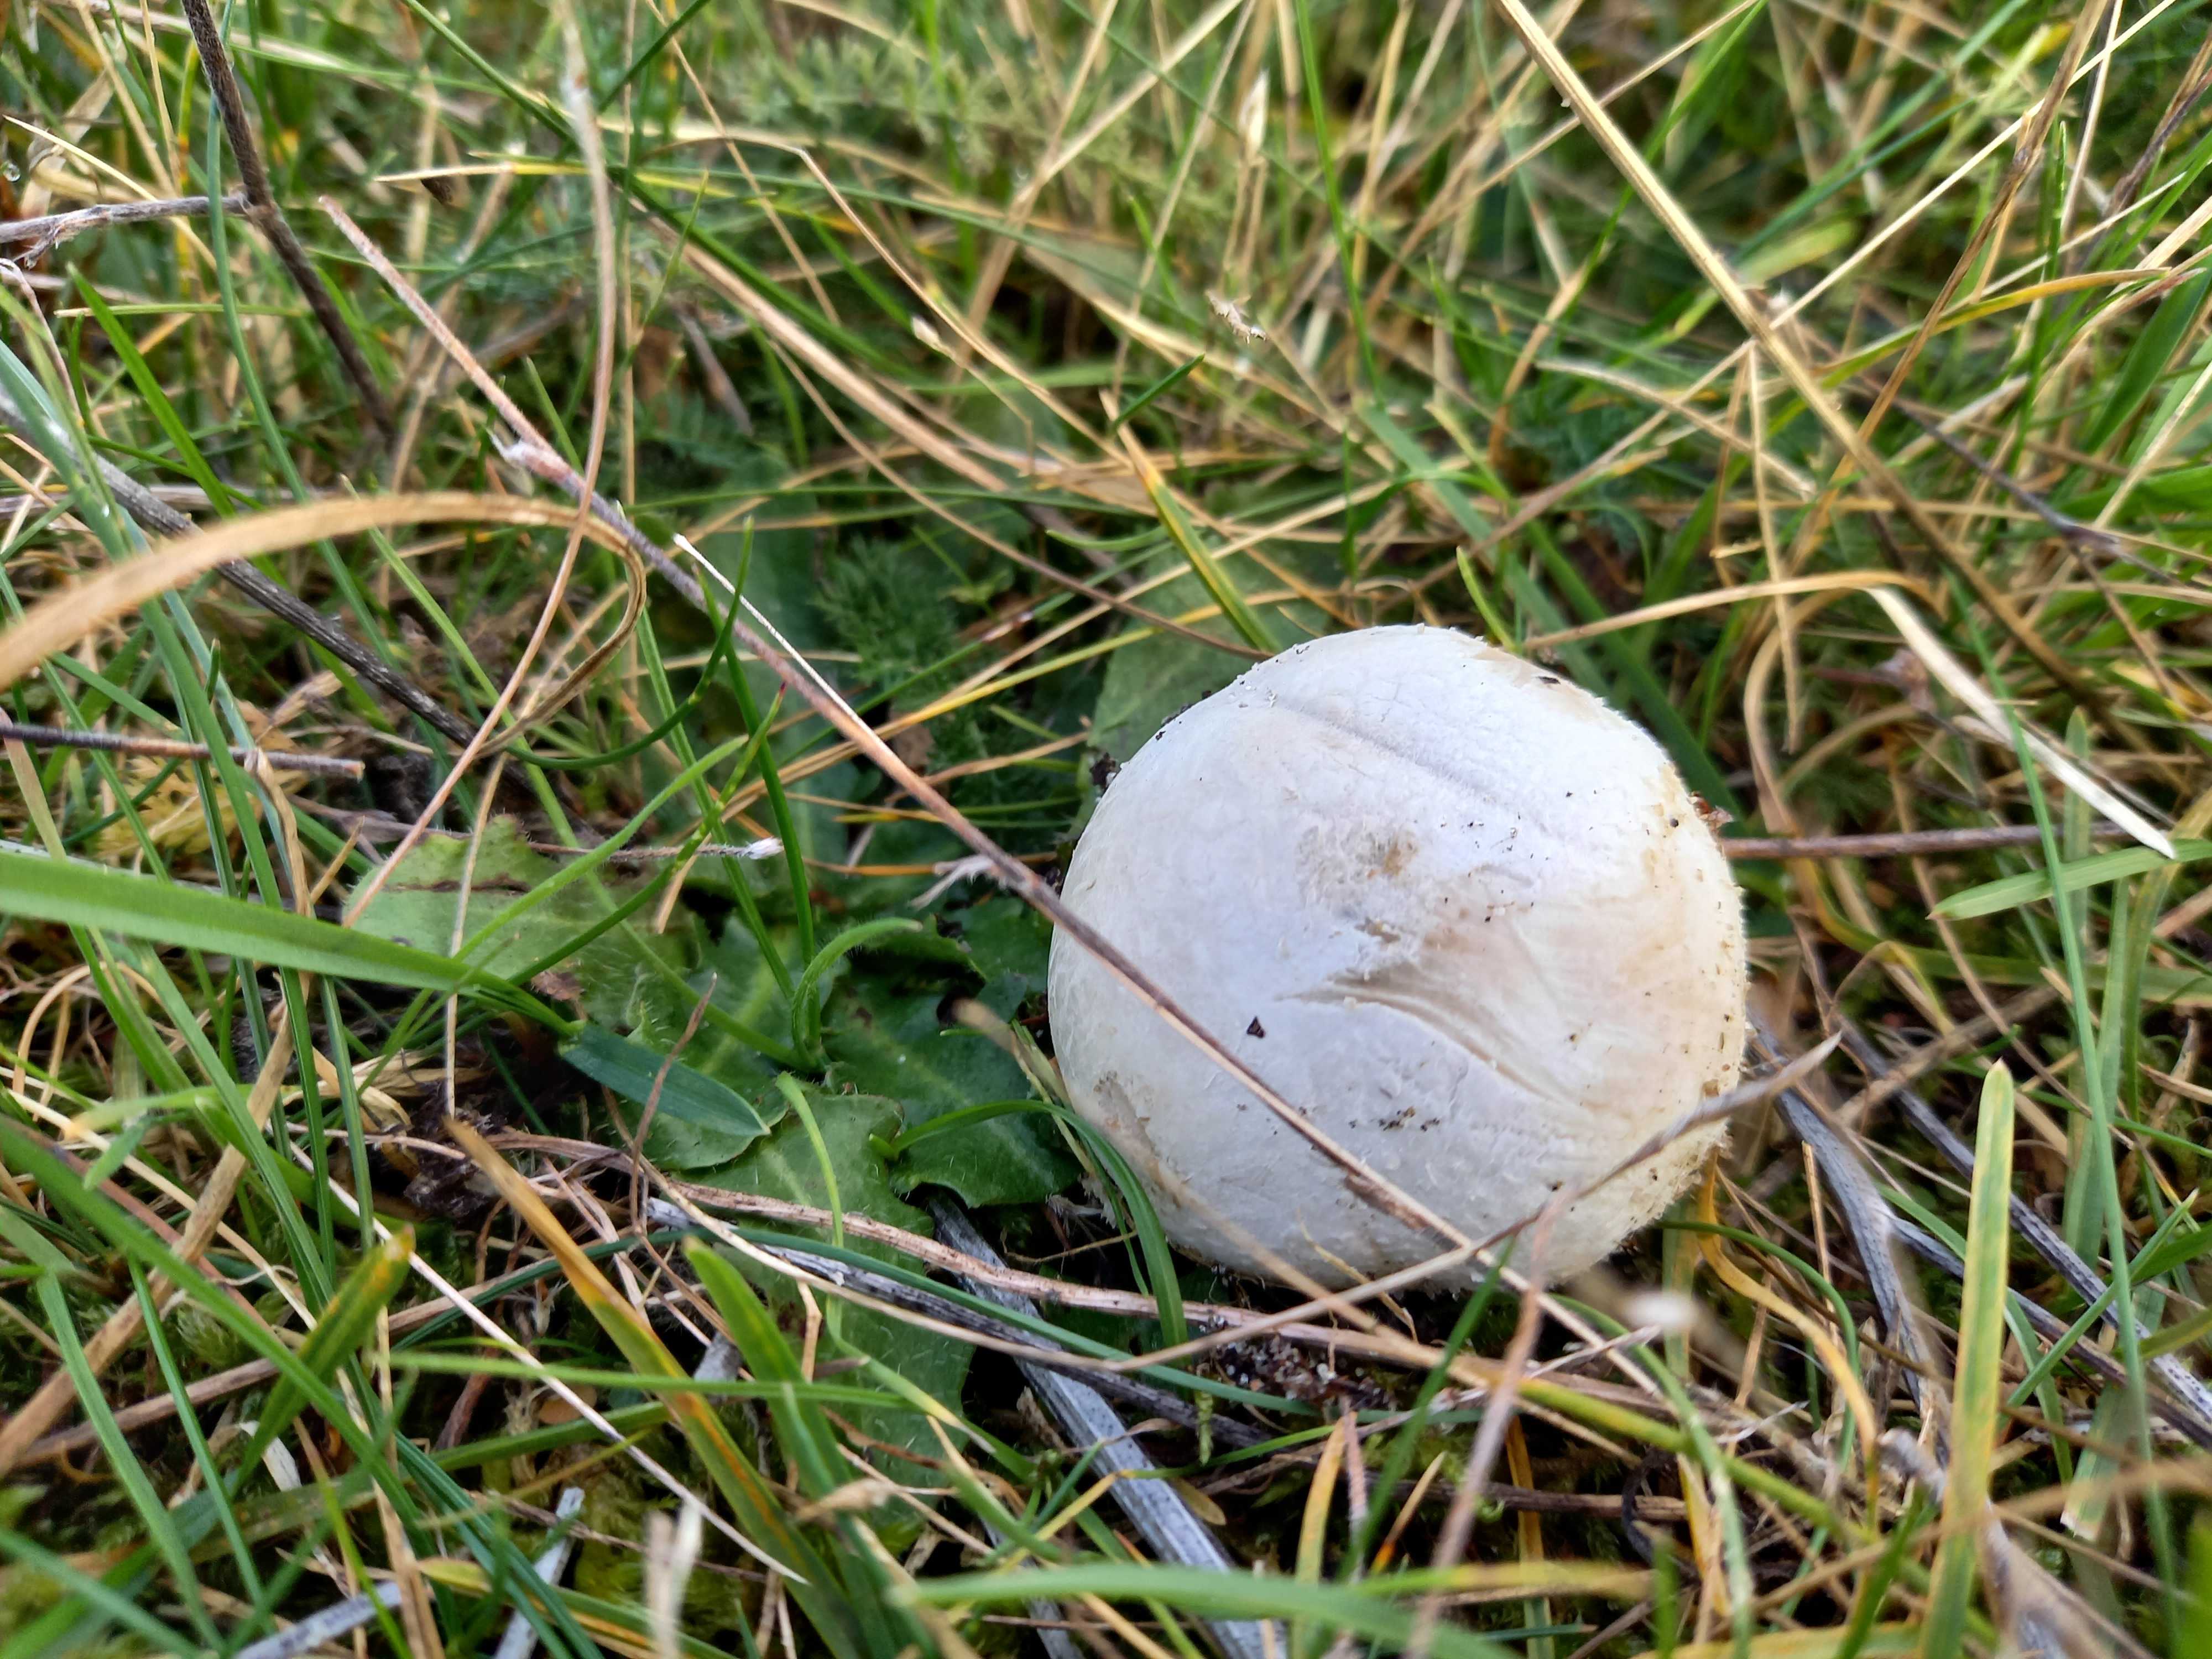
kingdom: Fungi
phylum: Basidiomycota
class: Agaricomycetes
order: Agaricales
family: Lycoperdaceae
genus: Bovista
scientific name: Bovista
